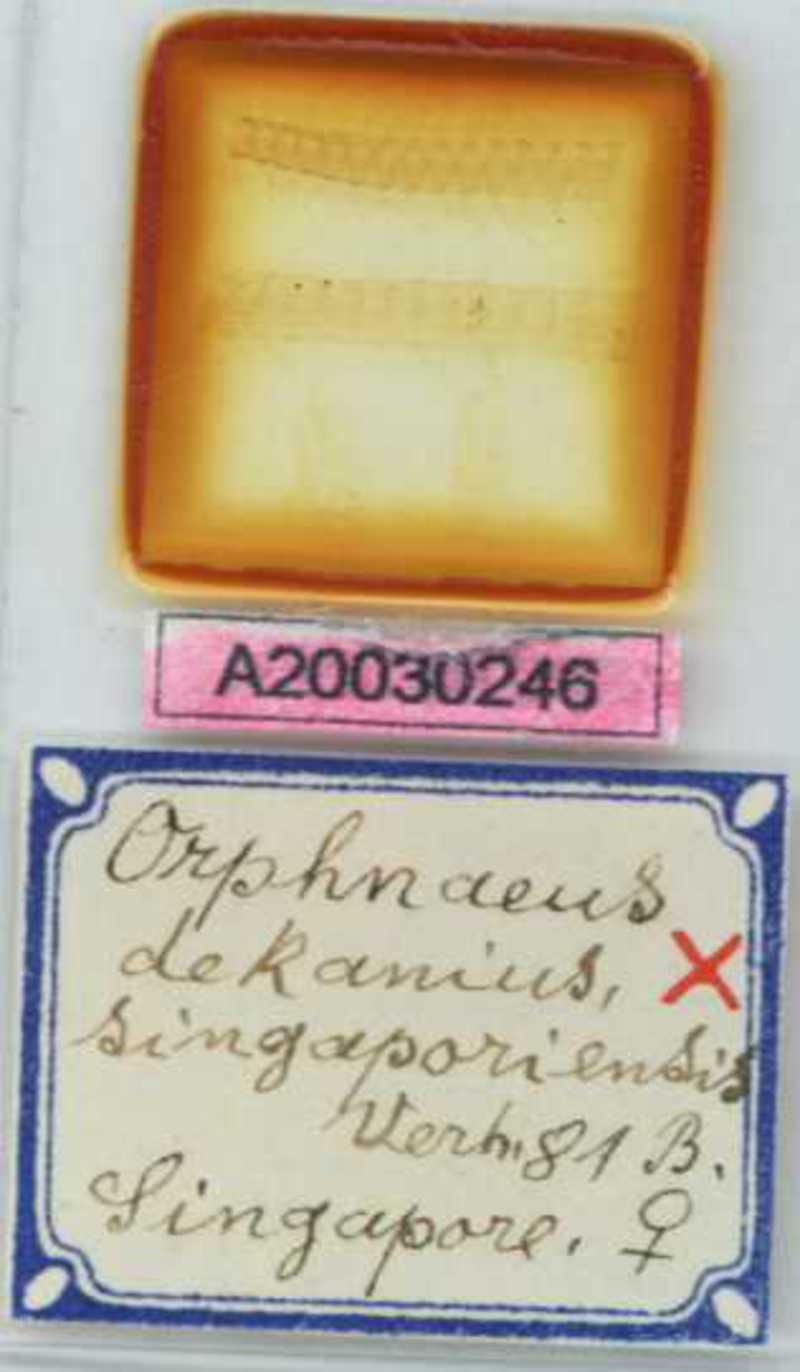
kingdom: Animalia
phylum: Arthropoda
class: Chilopoda
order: Geophilomorpha
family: Oryidae
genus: Orphnaeus
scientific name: Orphnaeus
